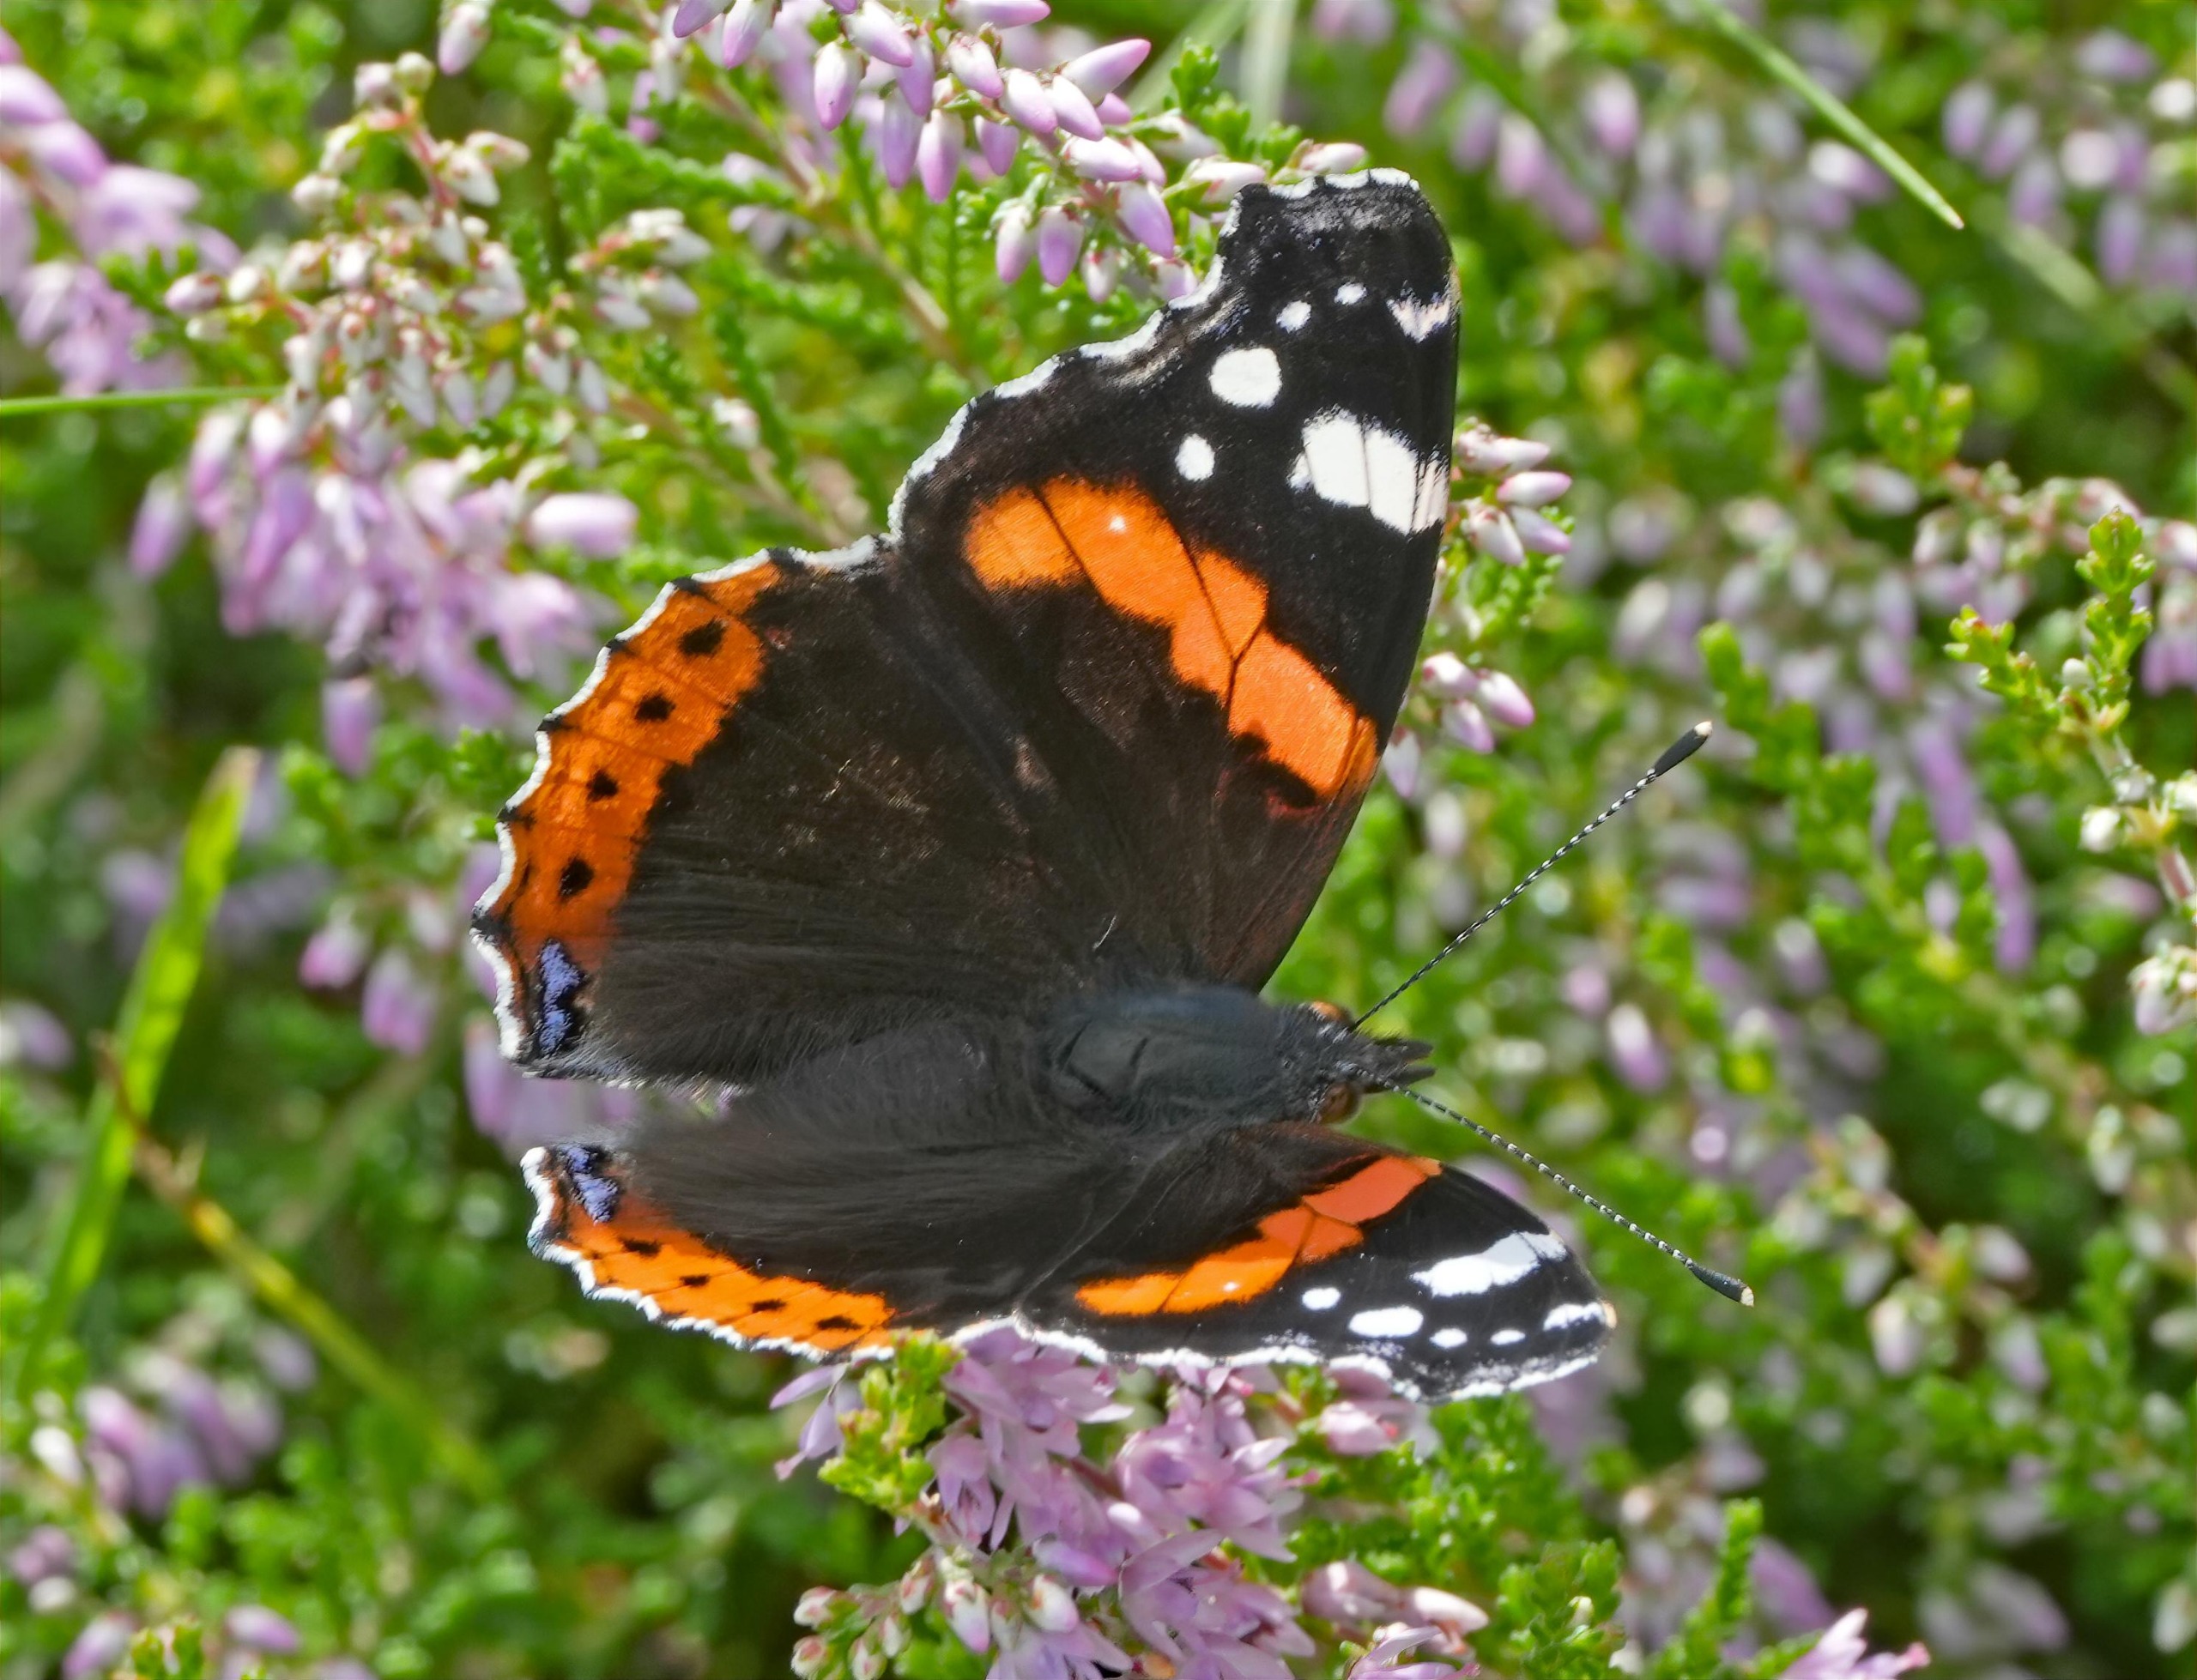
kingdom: Animalia
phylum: Arthropoda
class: Insecta
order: Lepidoptera
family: Nymphalidae
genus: Vanessa
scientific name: Vanessa atalanta
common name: Admiral
